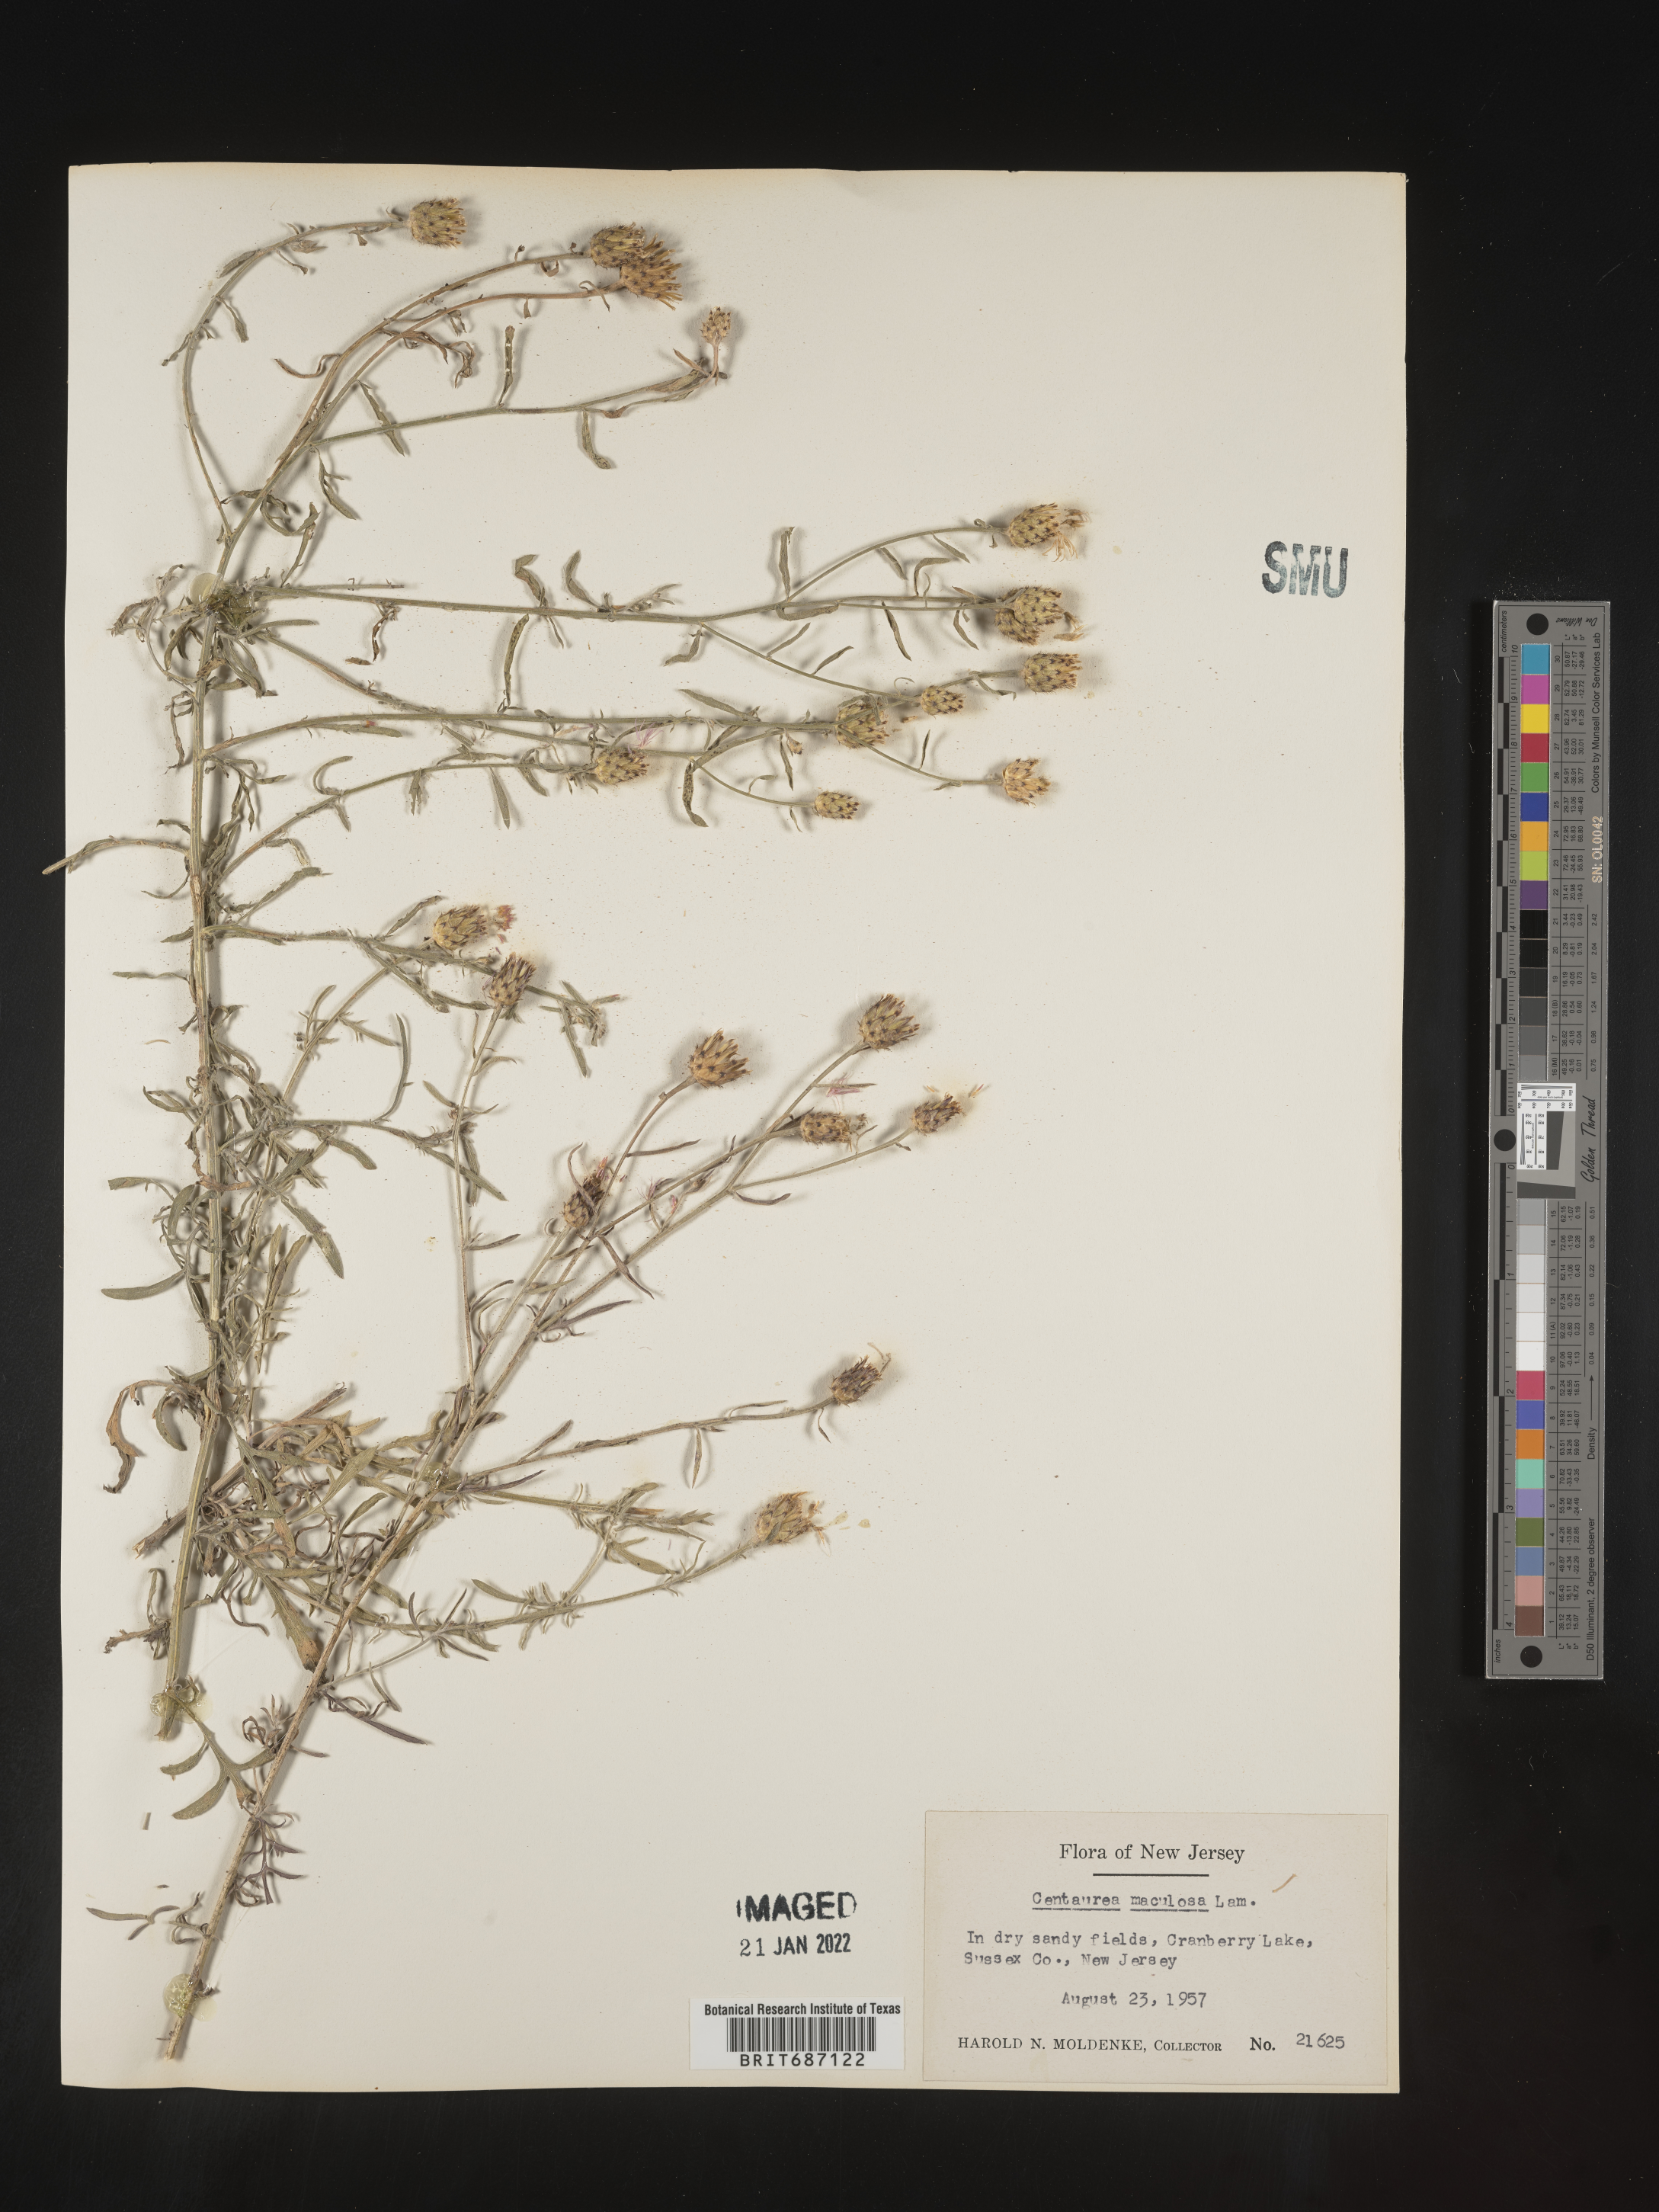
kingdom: Plantae
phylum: Tracheophyta
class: Magnoliopsida
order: Asterales
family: Asteraceae
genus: Centaurea
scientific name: Centaurea stoebe
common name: Spotted knapweed
